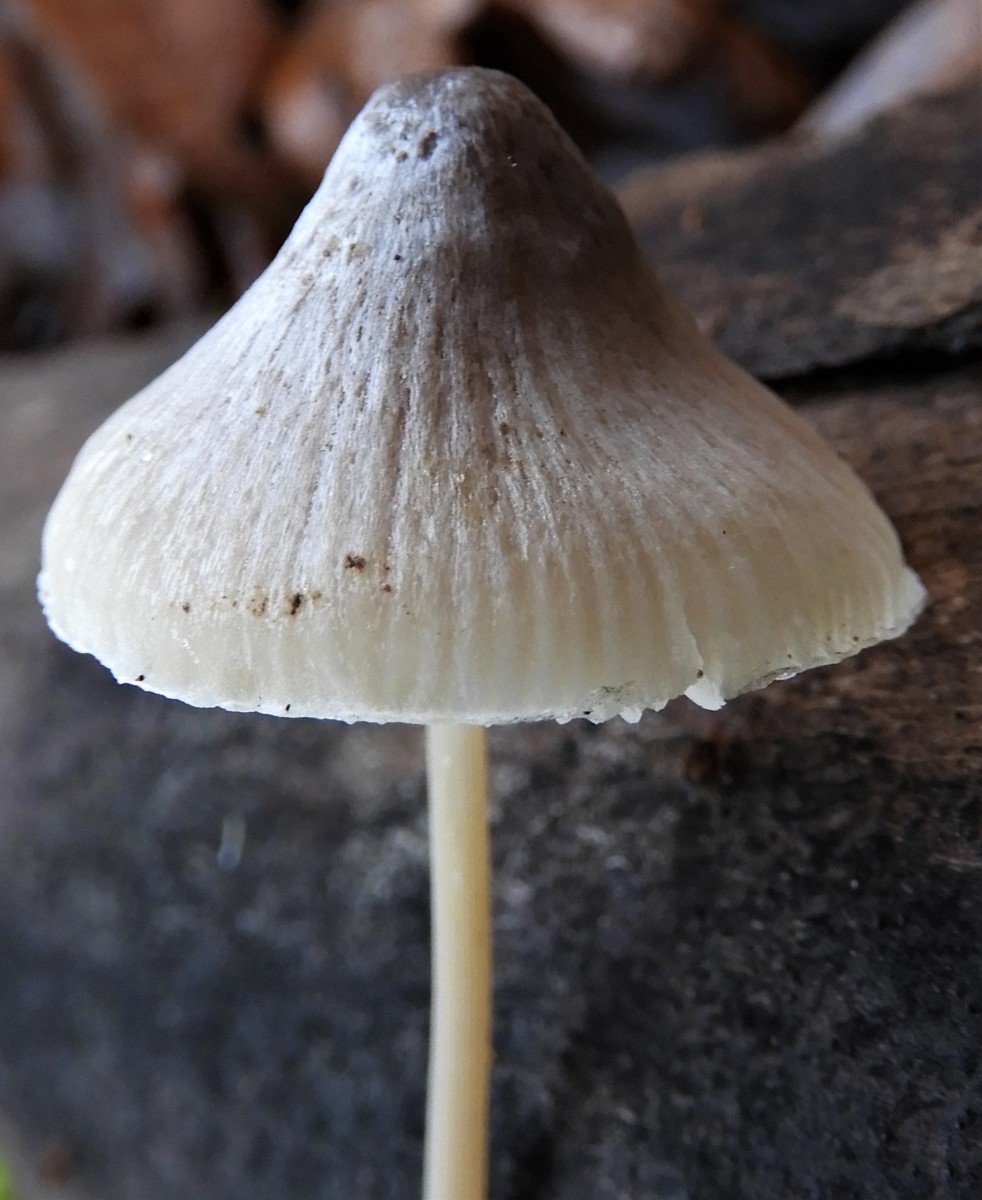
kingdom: Fungi
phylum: Basidiomycota
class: Agaricomycetes
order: Agaricales
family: Mycenaceae
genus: Mycena
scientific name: Mycena
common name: huesvamp
